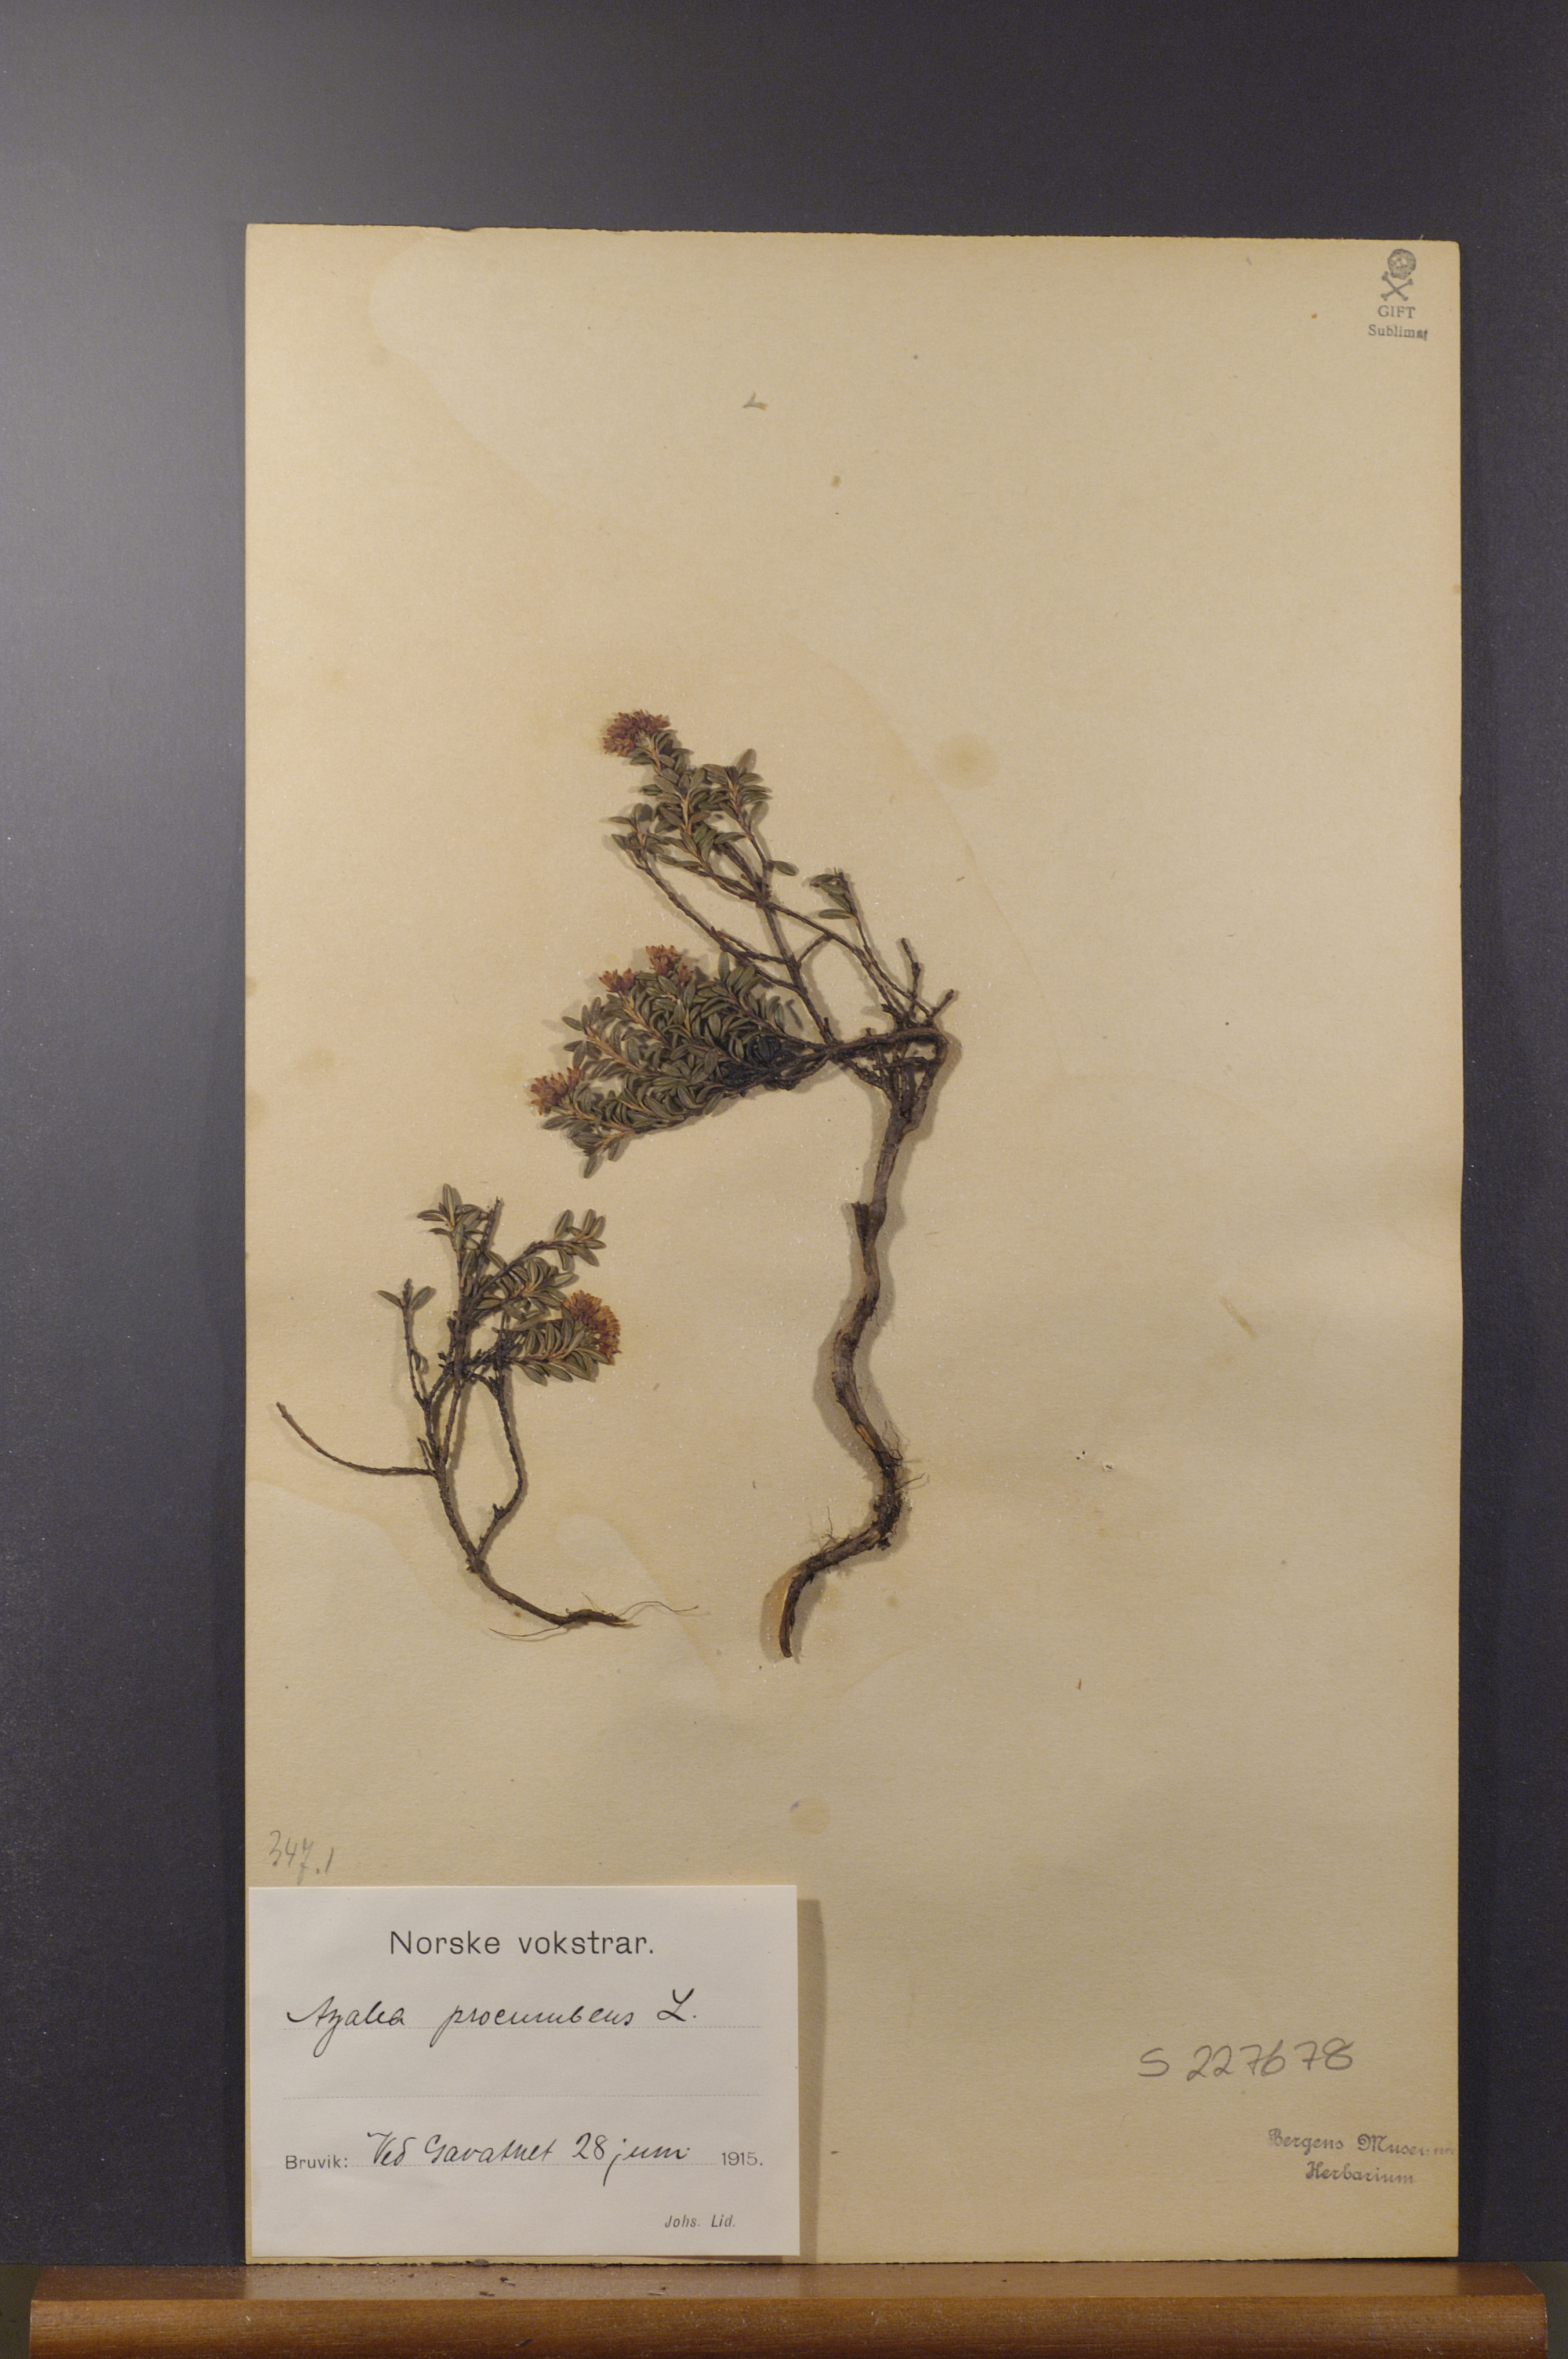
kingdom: Plantae
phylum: Tracheophyta
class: Magnoliopsida
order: Ericales
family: Ericaceae
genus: Kalmia
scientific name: Kalmia procumbens
